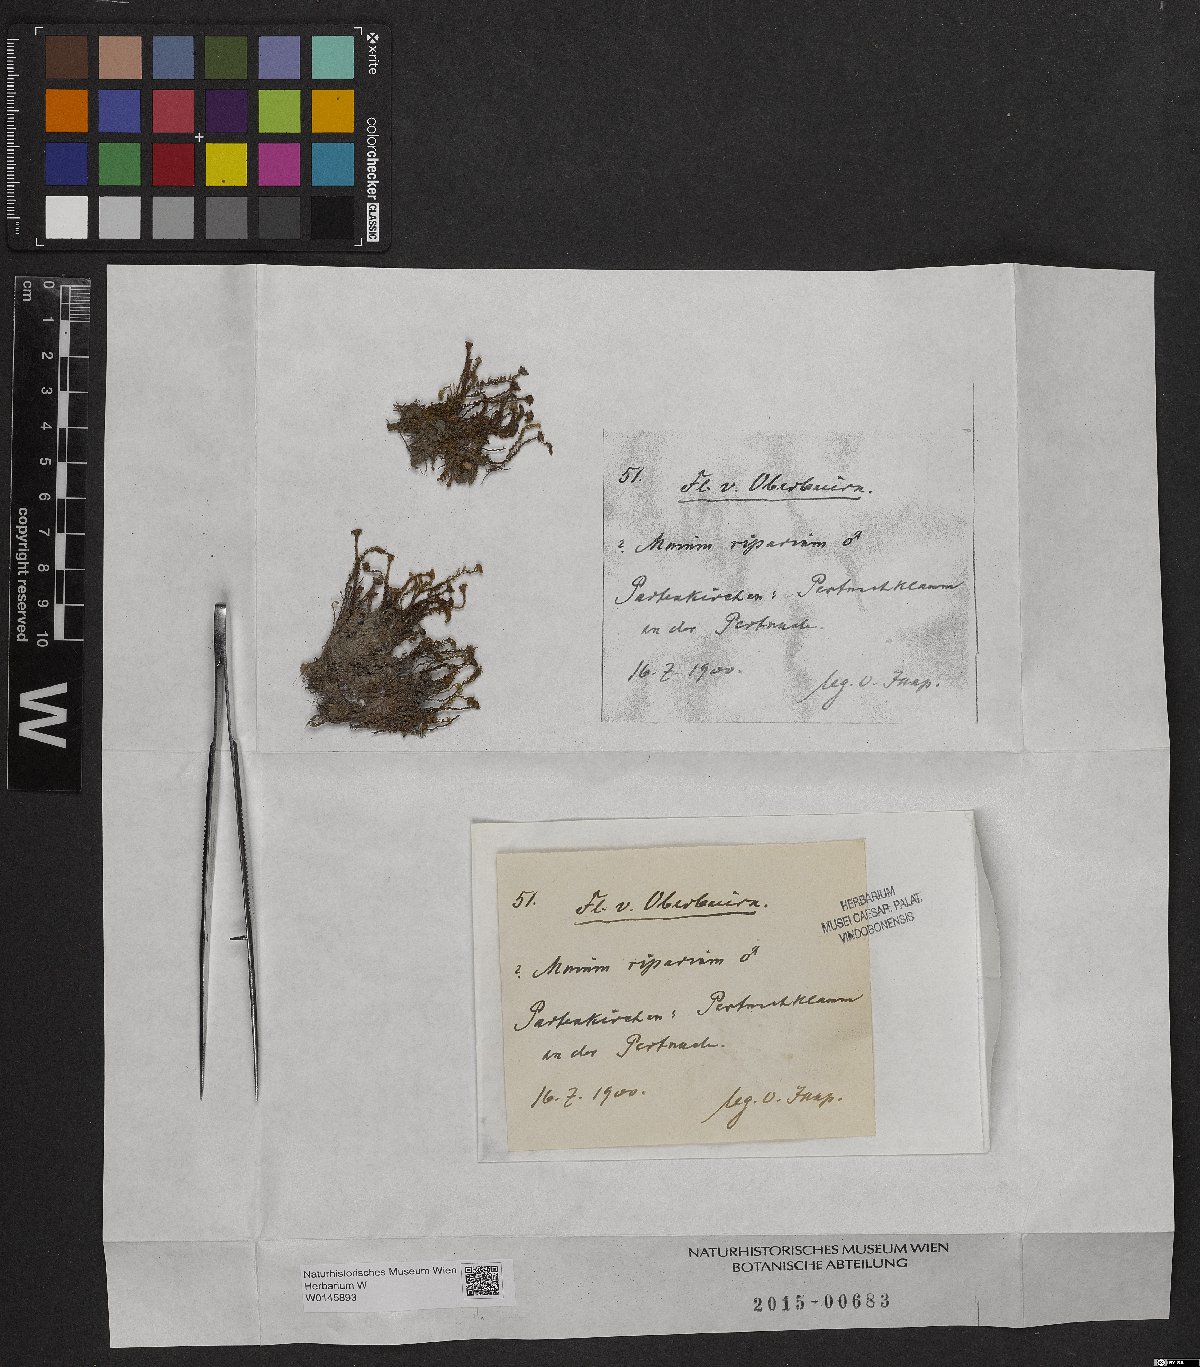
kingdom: Plantae
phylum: Bryophyta
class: Bryopsida
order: Bryales
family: Mniaceae
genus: Mnium
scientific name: Mnium marginatum
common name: Bordered leafy moss
